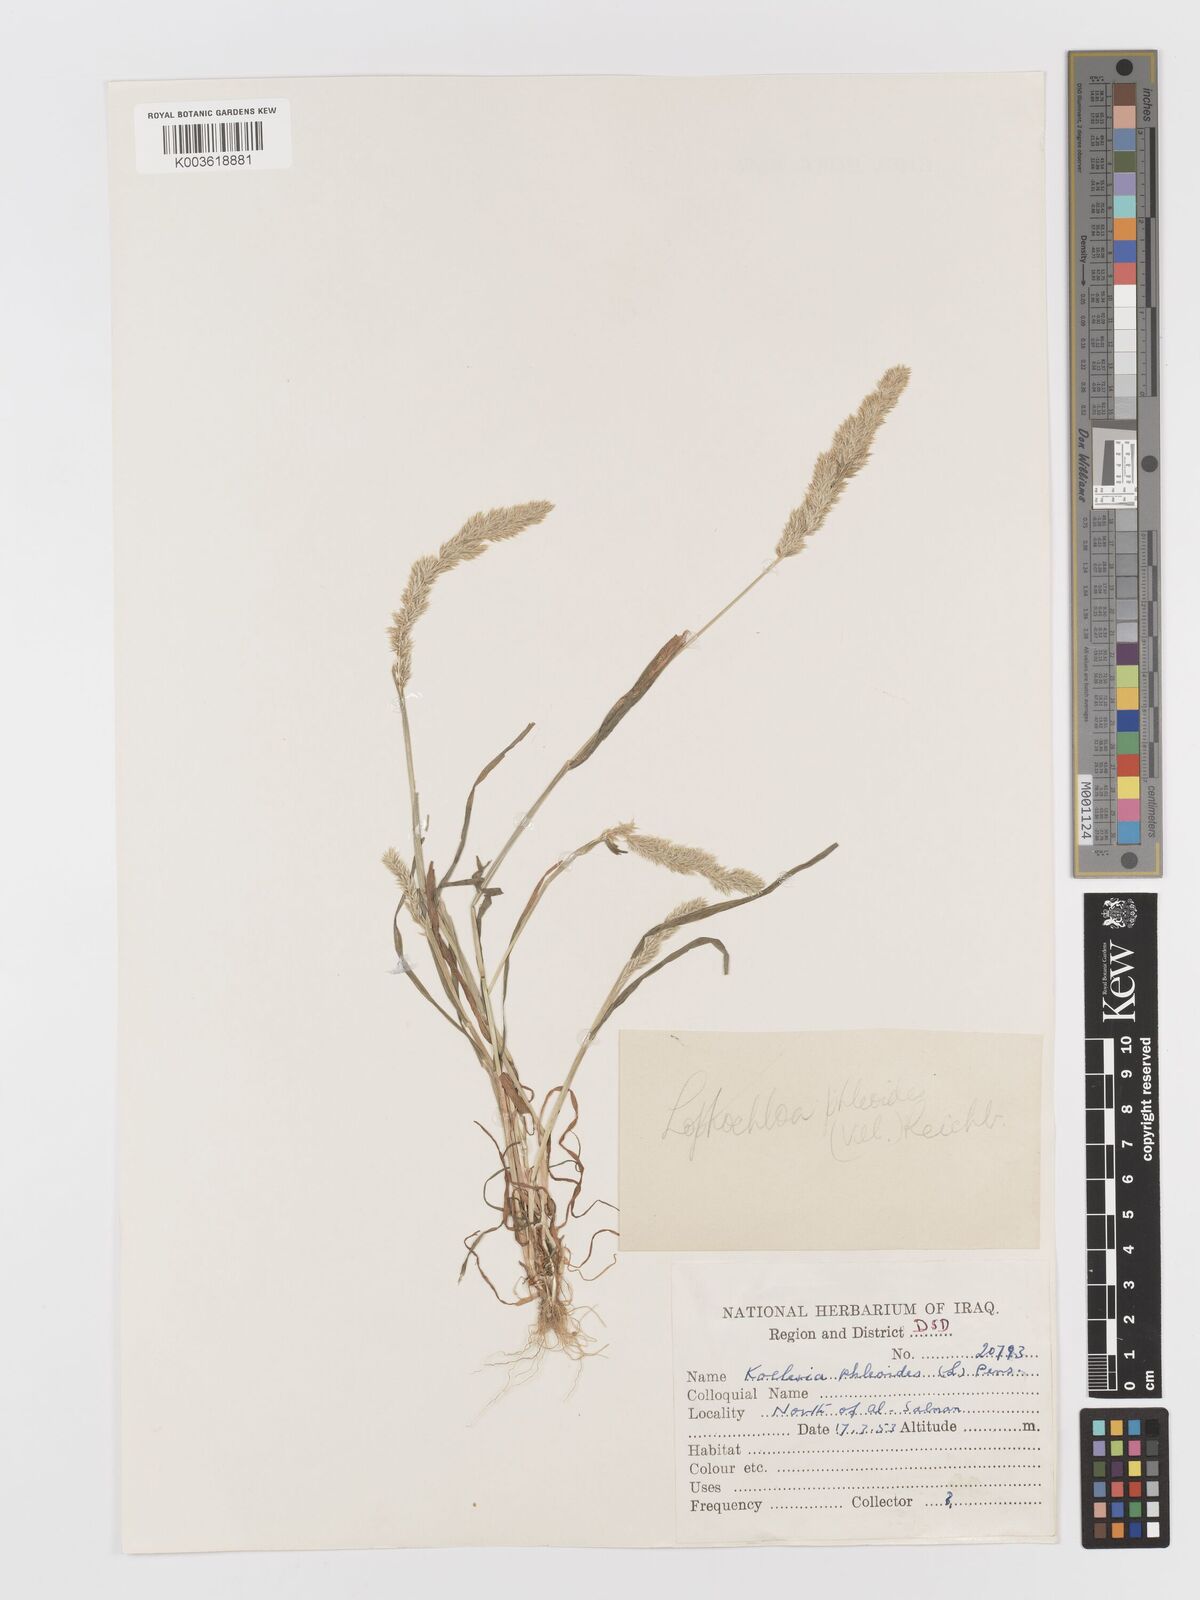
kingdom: Plantae
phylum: Tracheophyta
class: Liliopsida
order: Poales
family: Poaceae
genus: Rostraria
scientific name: Rostraria cristata
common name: Mediterranean hair-grass
